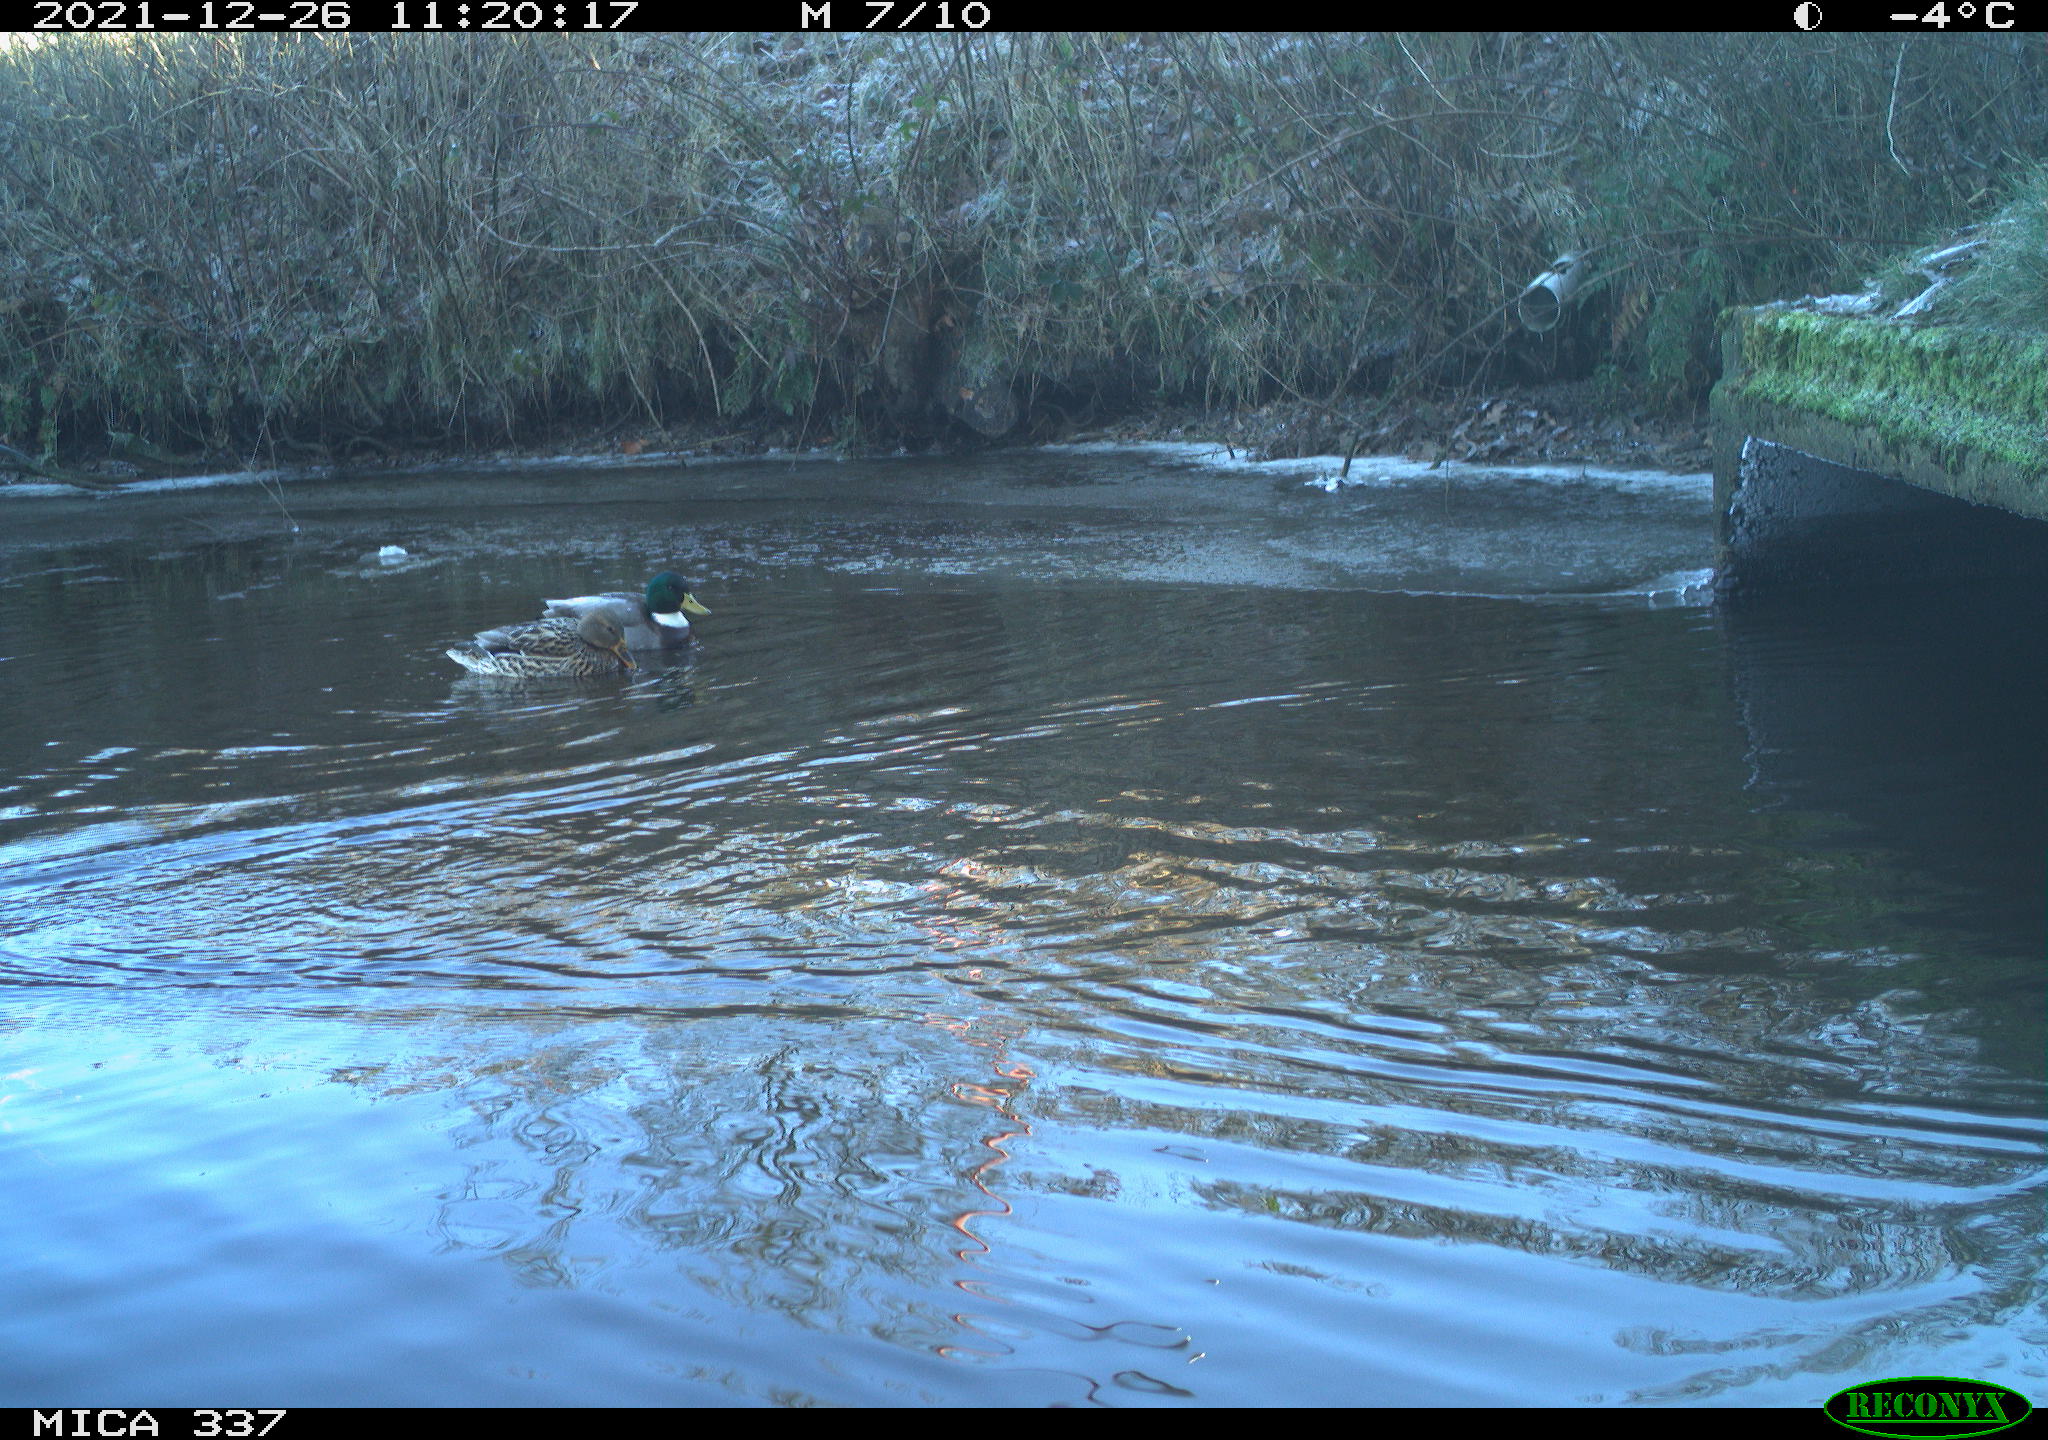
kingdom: Animalia
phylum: Chordata
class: Aves
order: Anseriformes
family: Anatidae
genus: Anas
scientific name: Anas platyrhynchos
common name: Mallard
